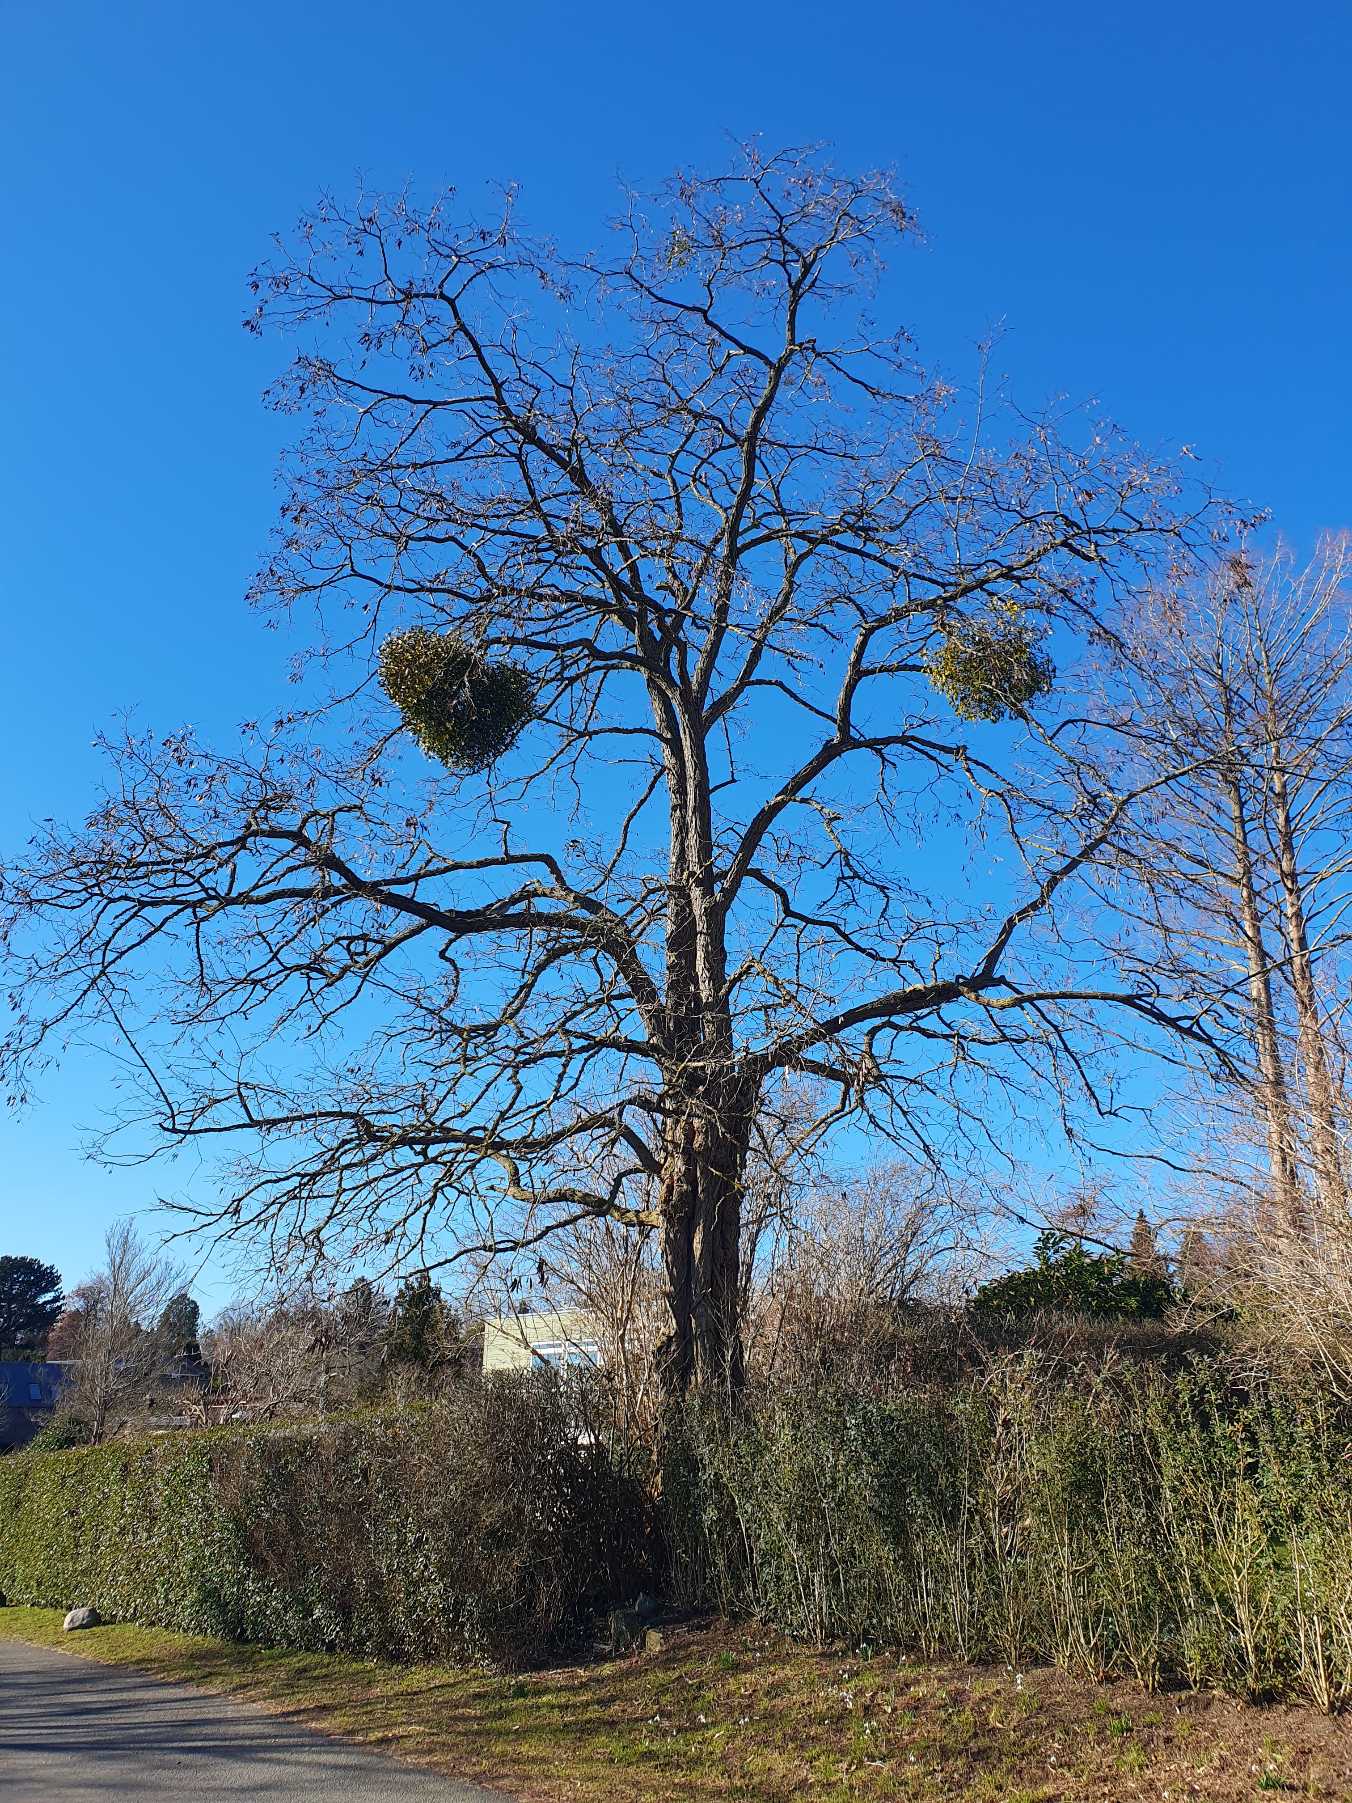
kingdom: Plantae
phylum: Tracheophyta
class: Magnoliopsida
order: Santalales
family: Viscaceae
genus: Viscum
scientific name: Viscum album
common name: Mistelten
